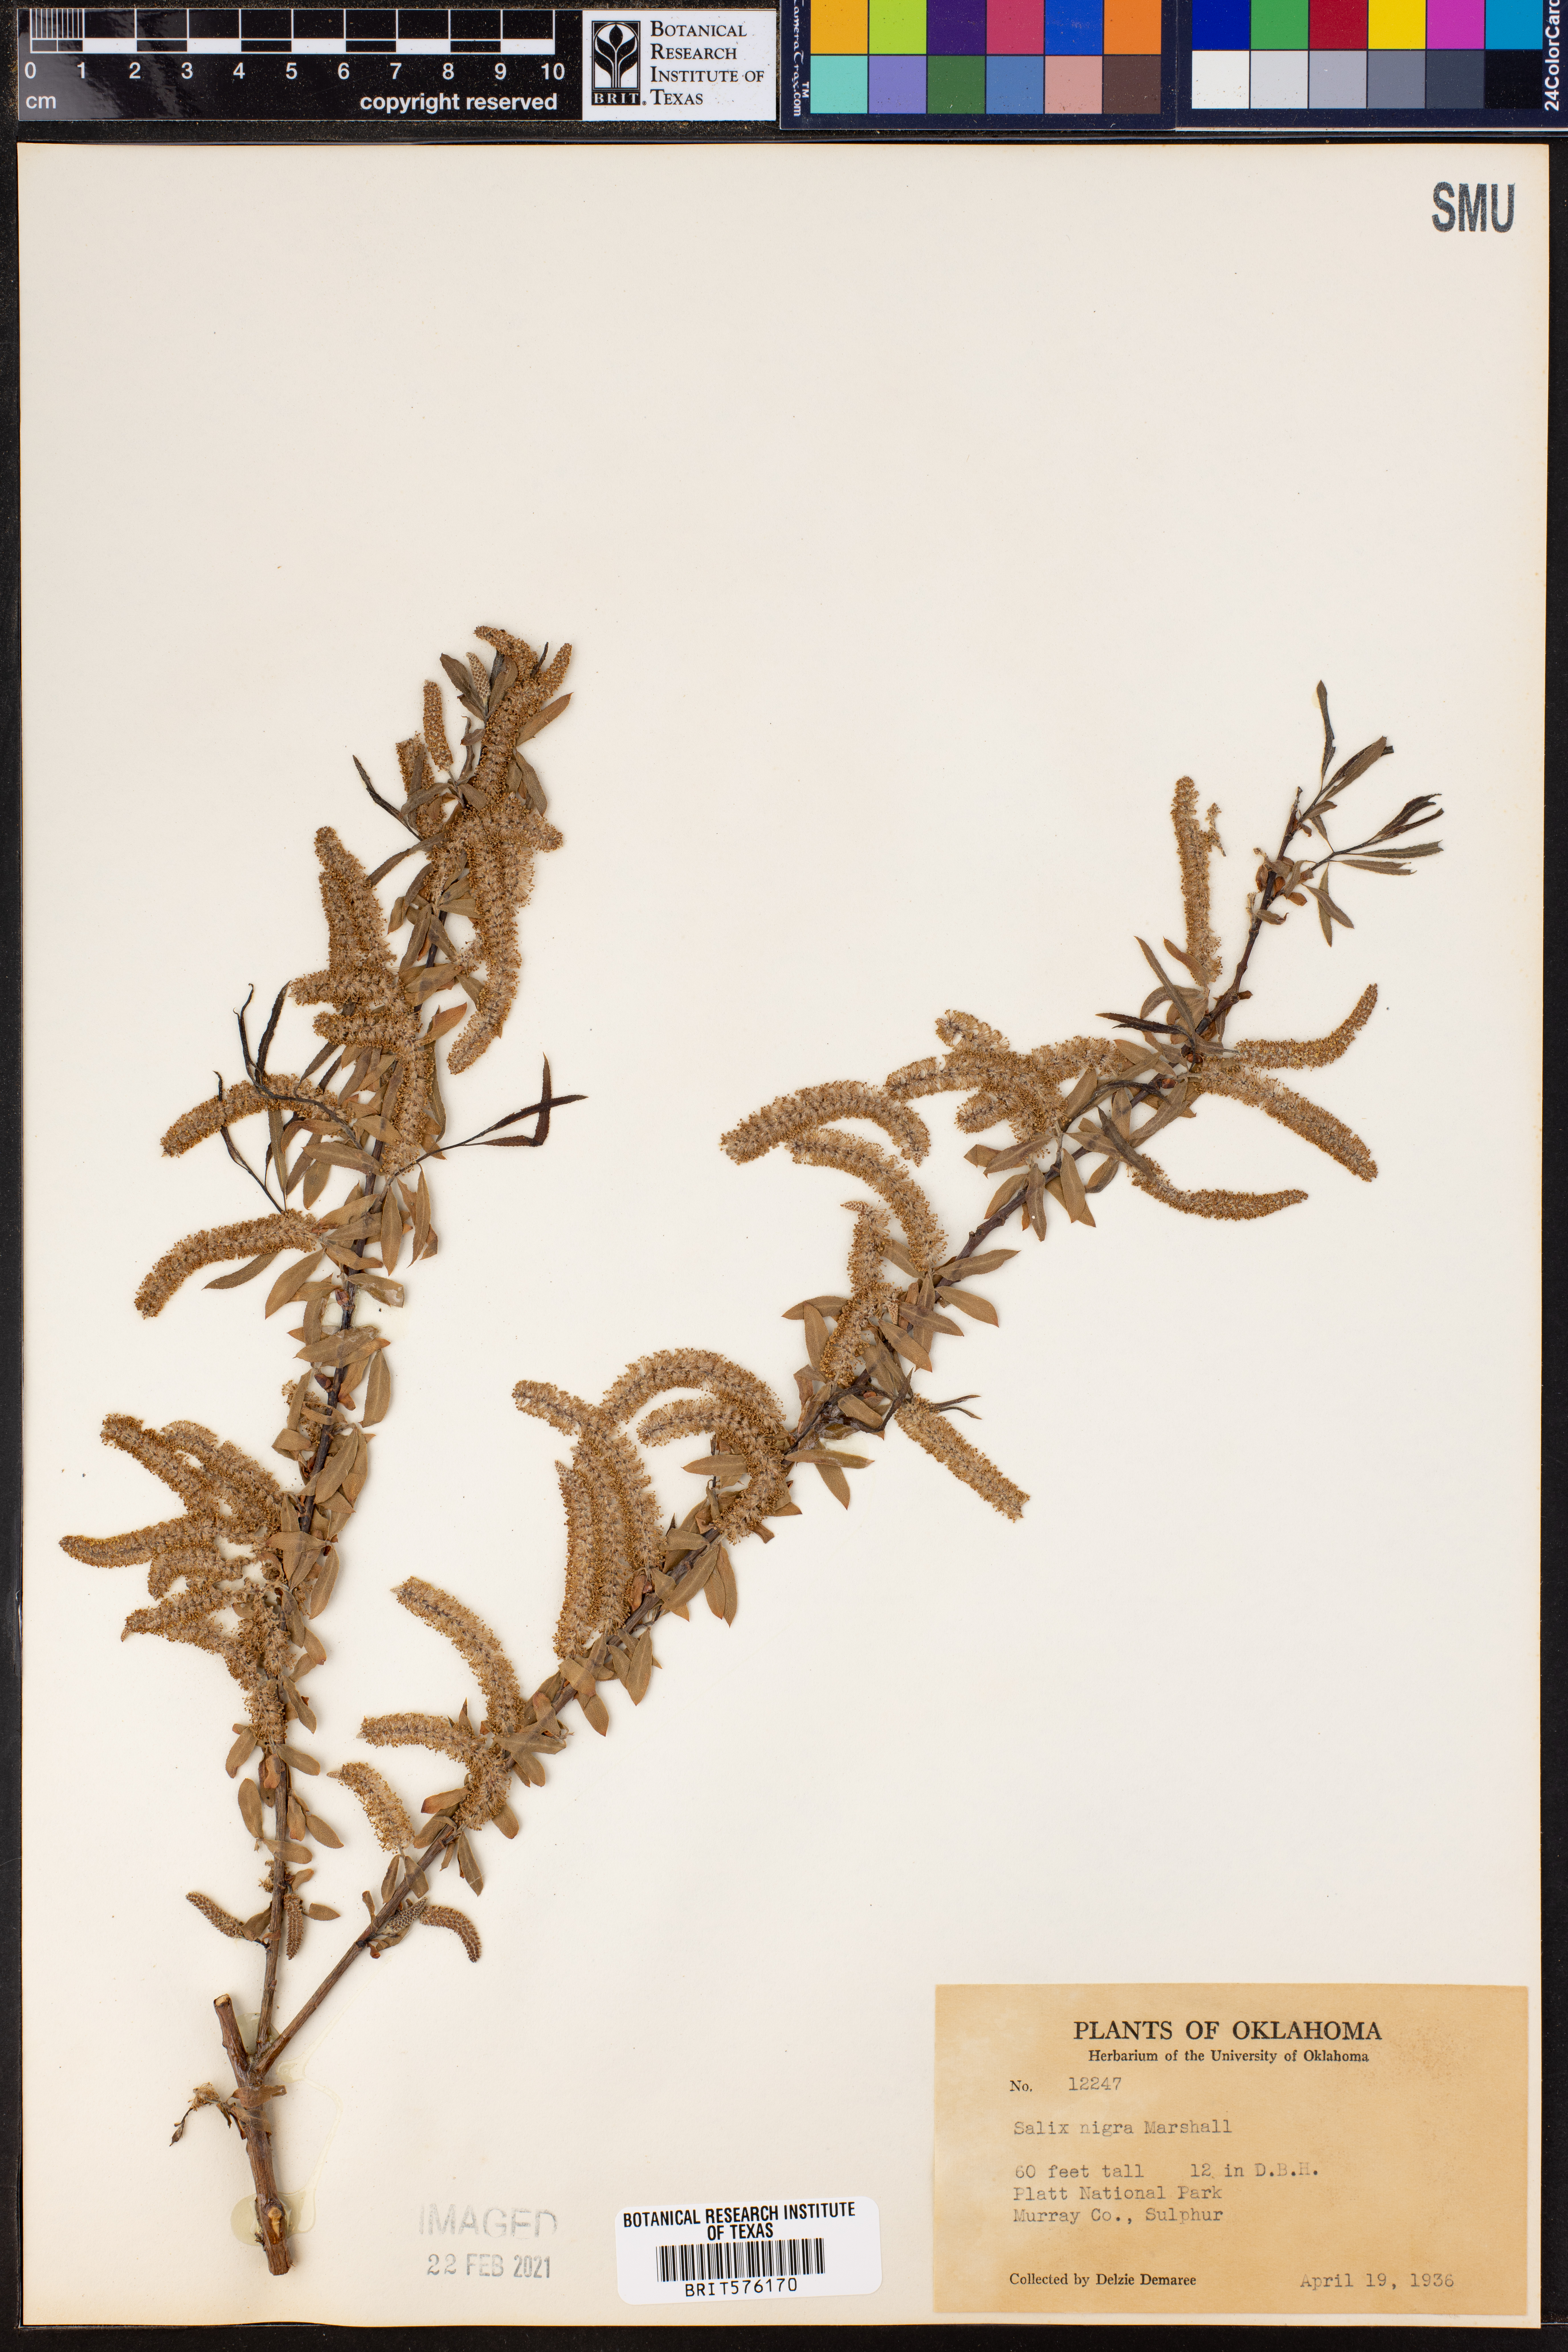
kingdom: Plantae
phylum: Tracheophyta
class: Magnoliopsida
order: Malpighiales
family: Salicaceae
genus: Salix
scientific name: Salix nigra
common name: Black willow
